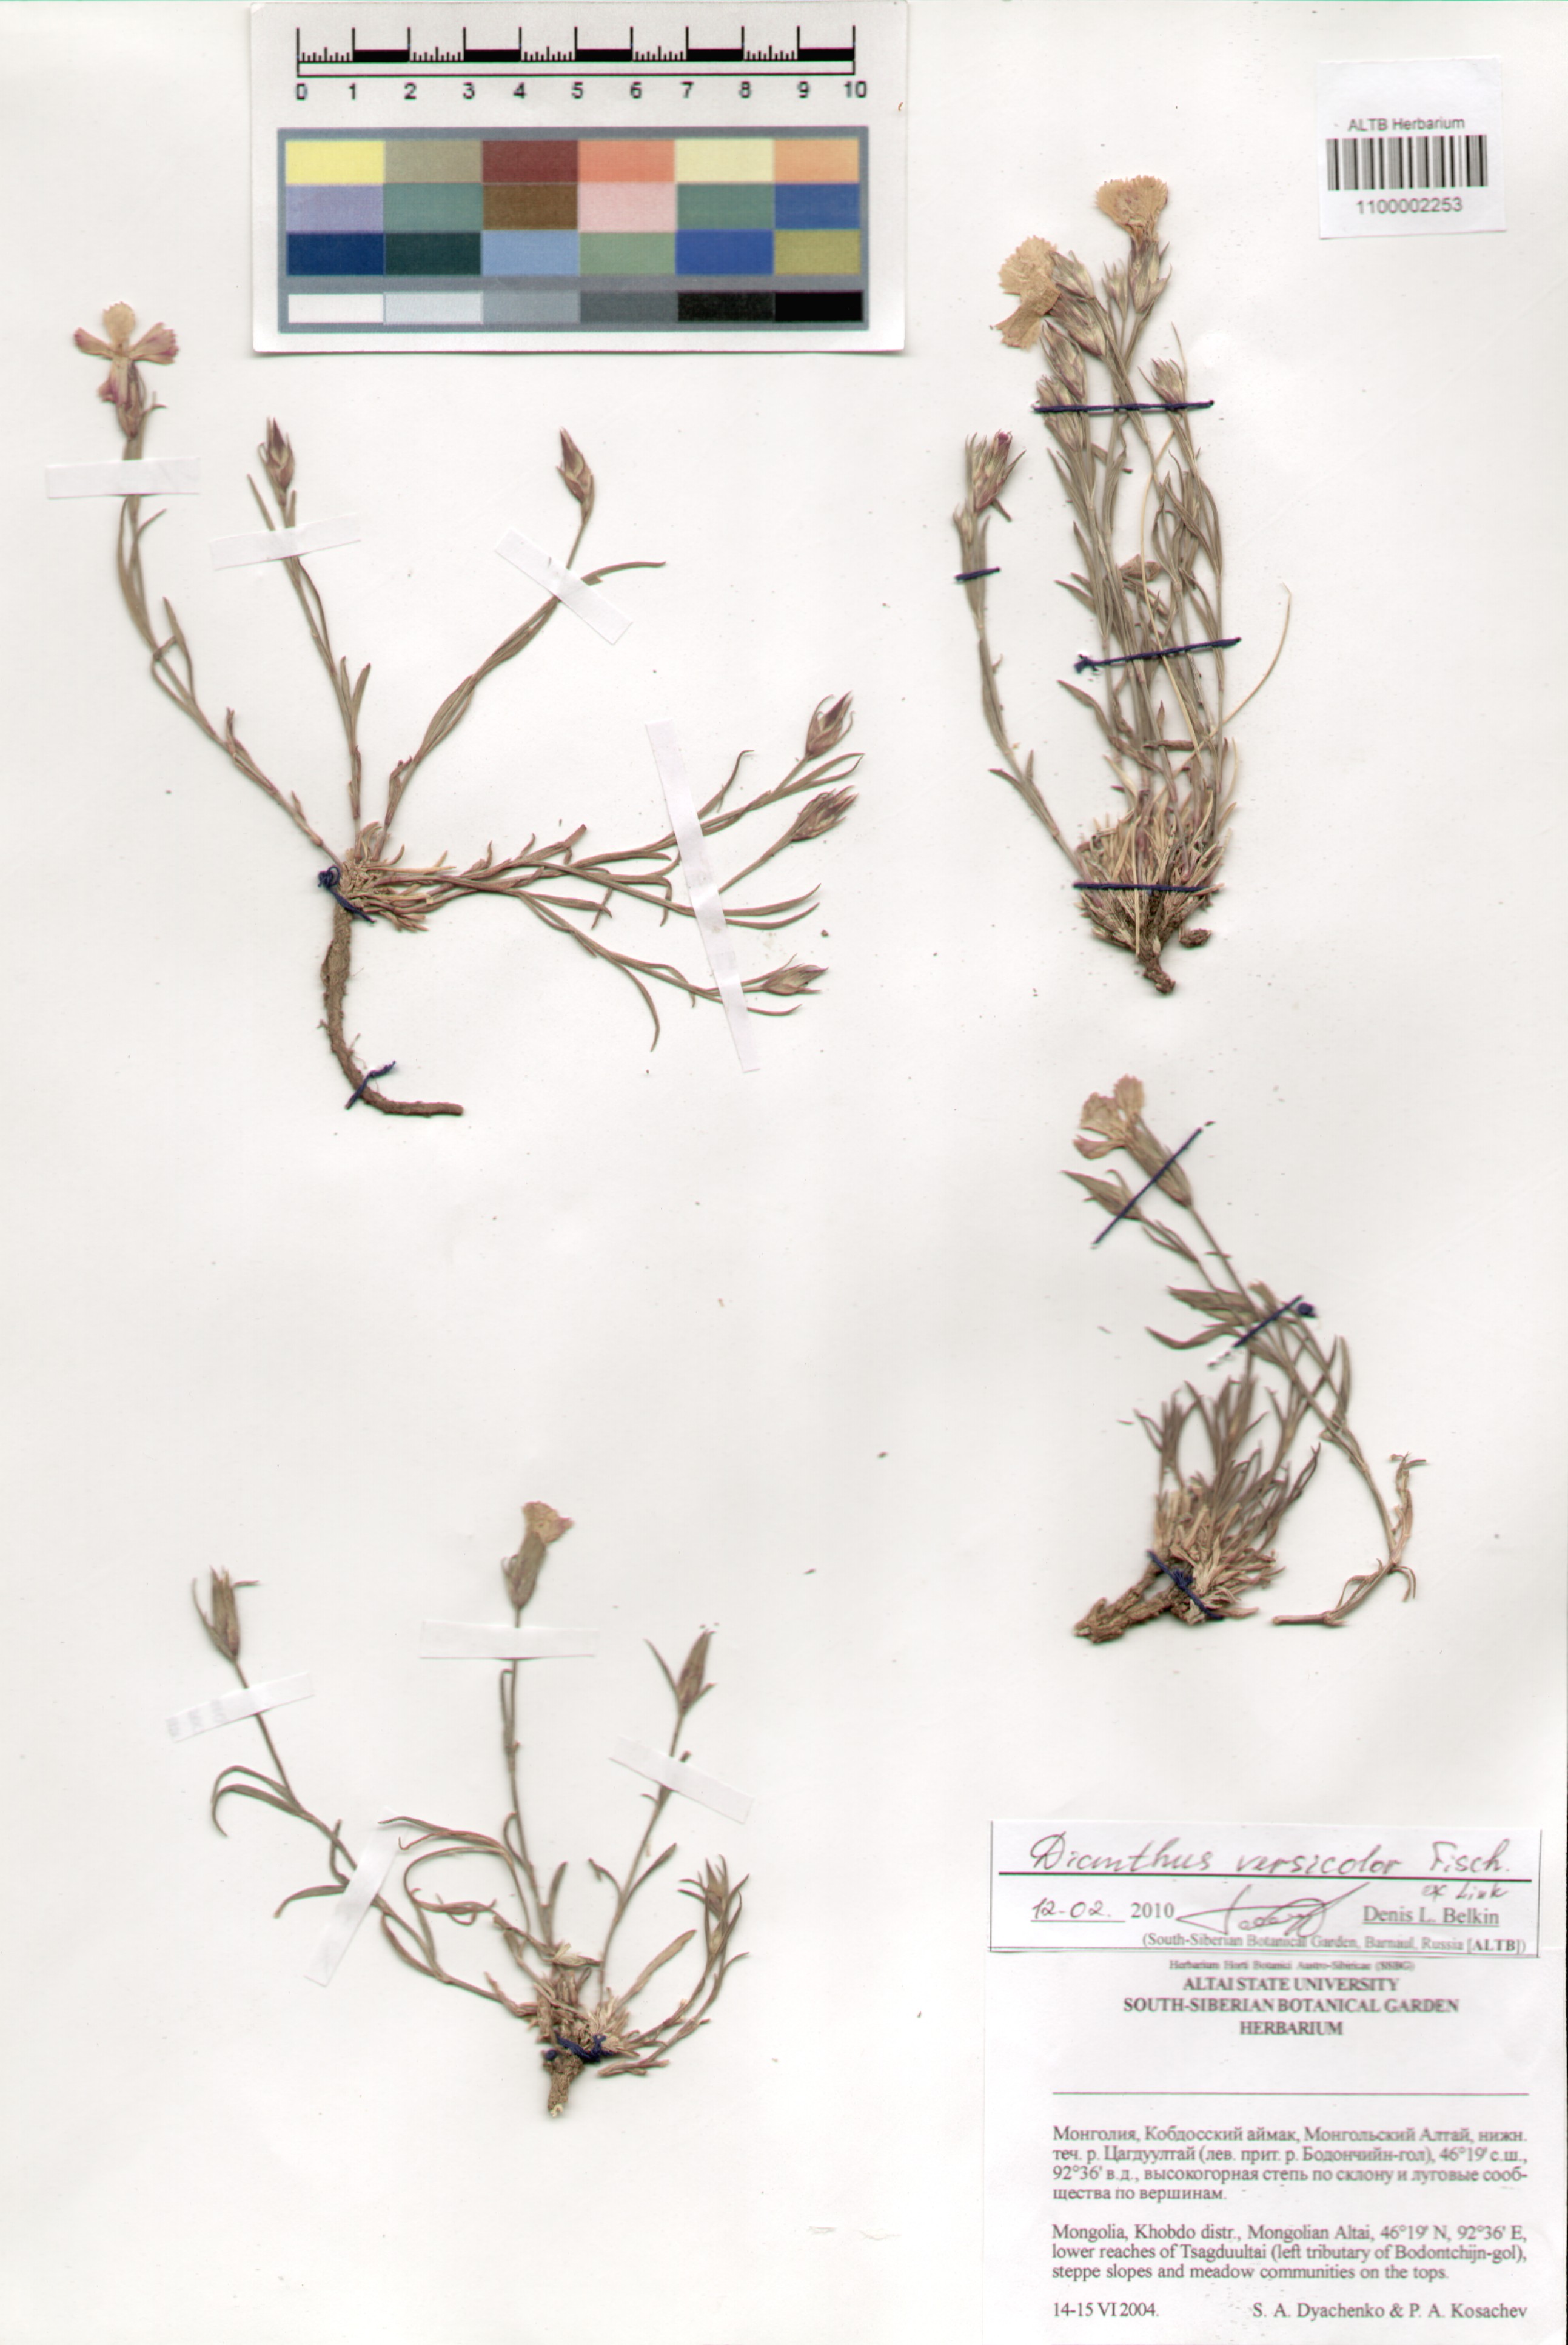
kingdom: Plantae
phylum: Tracheophyta
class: Magnoliopsida
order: Caryophyllales
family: Caryophyllaceae
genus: Dianthus
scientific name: Dianthus chinensis
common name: Rainbow pink
